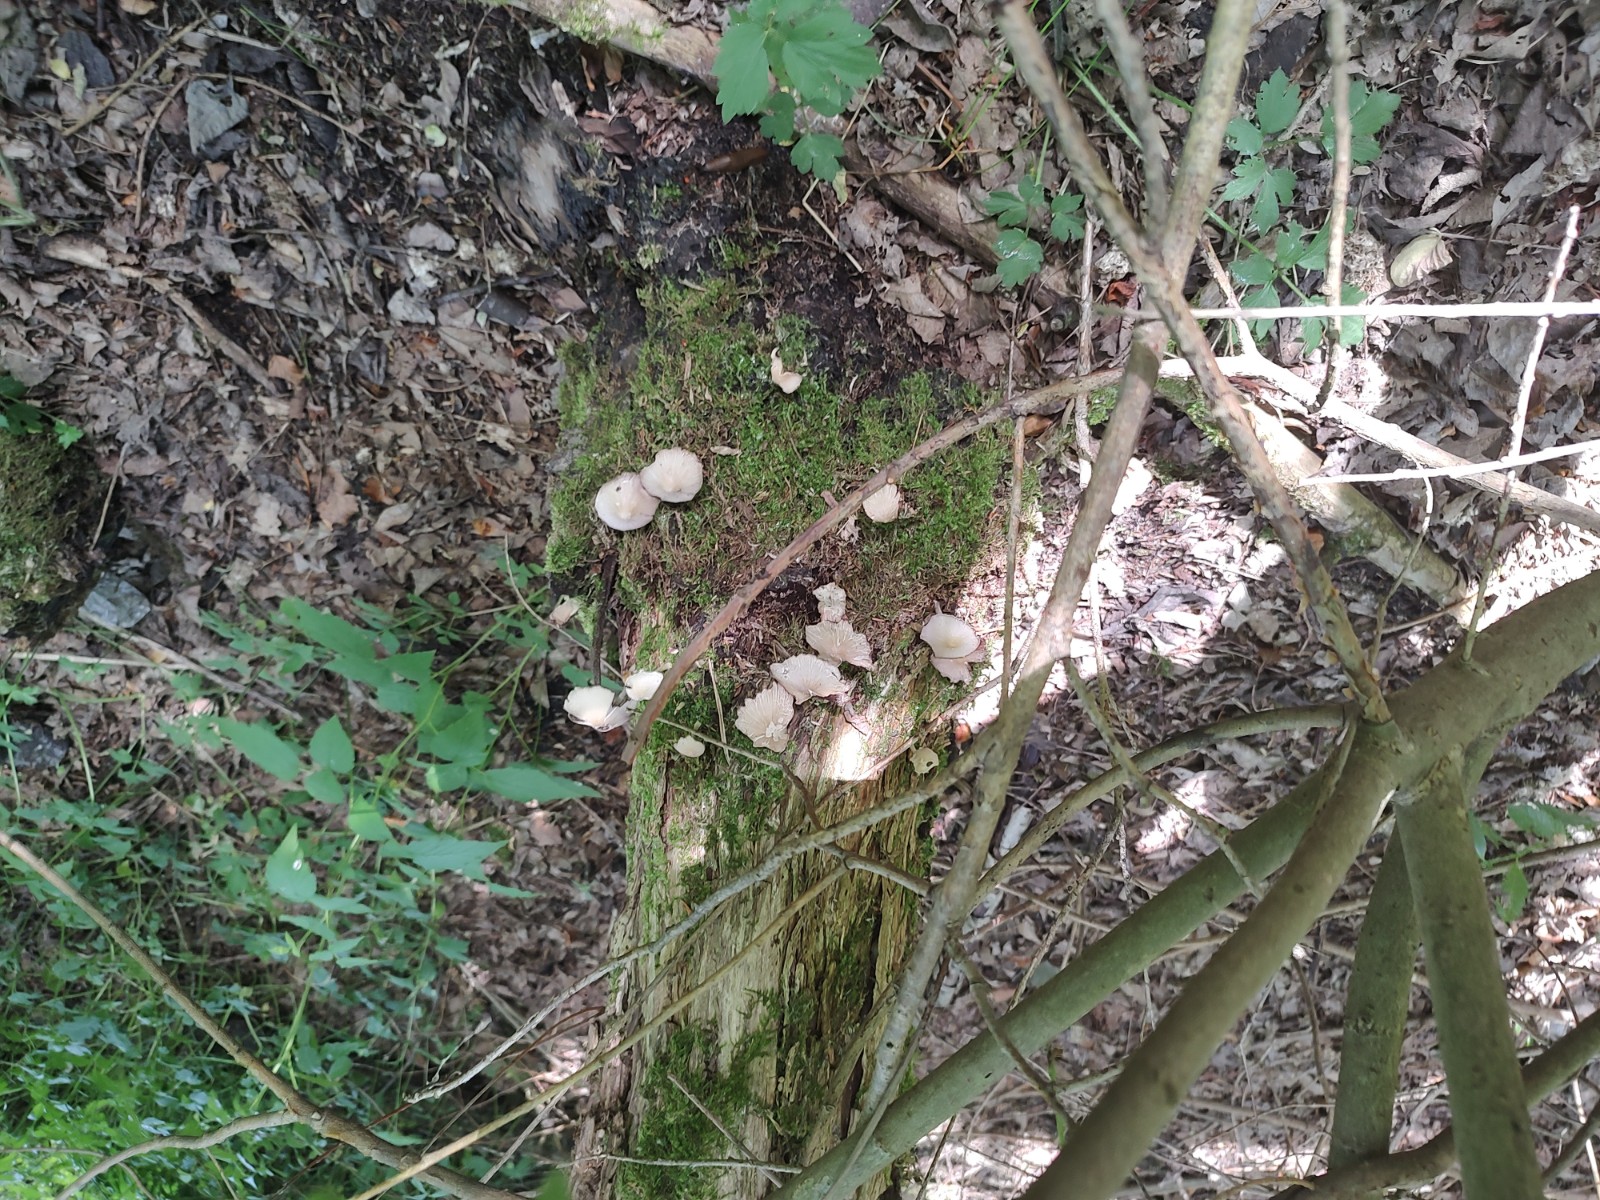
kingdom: Fungi
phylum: Basidiomycota
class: Agaricomycetes
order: Agaricales
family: Psathyrellaceae
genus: Candolleomyces
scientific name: Candolleomyces candolleanus
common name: Candolles mørkhat
